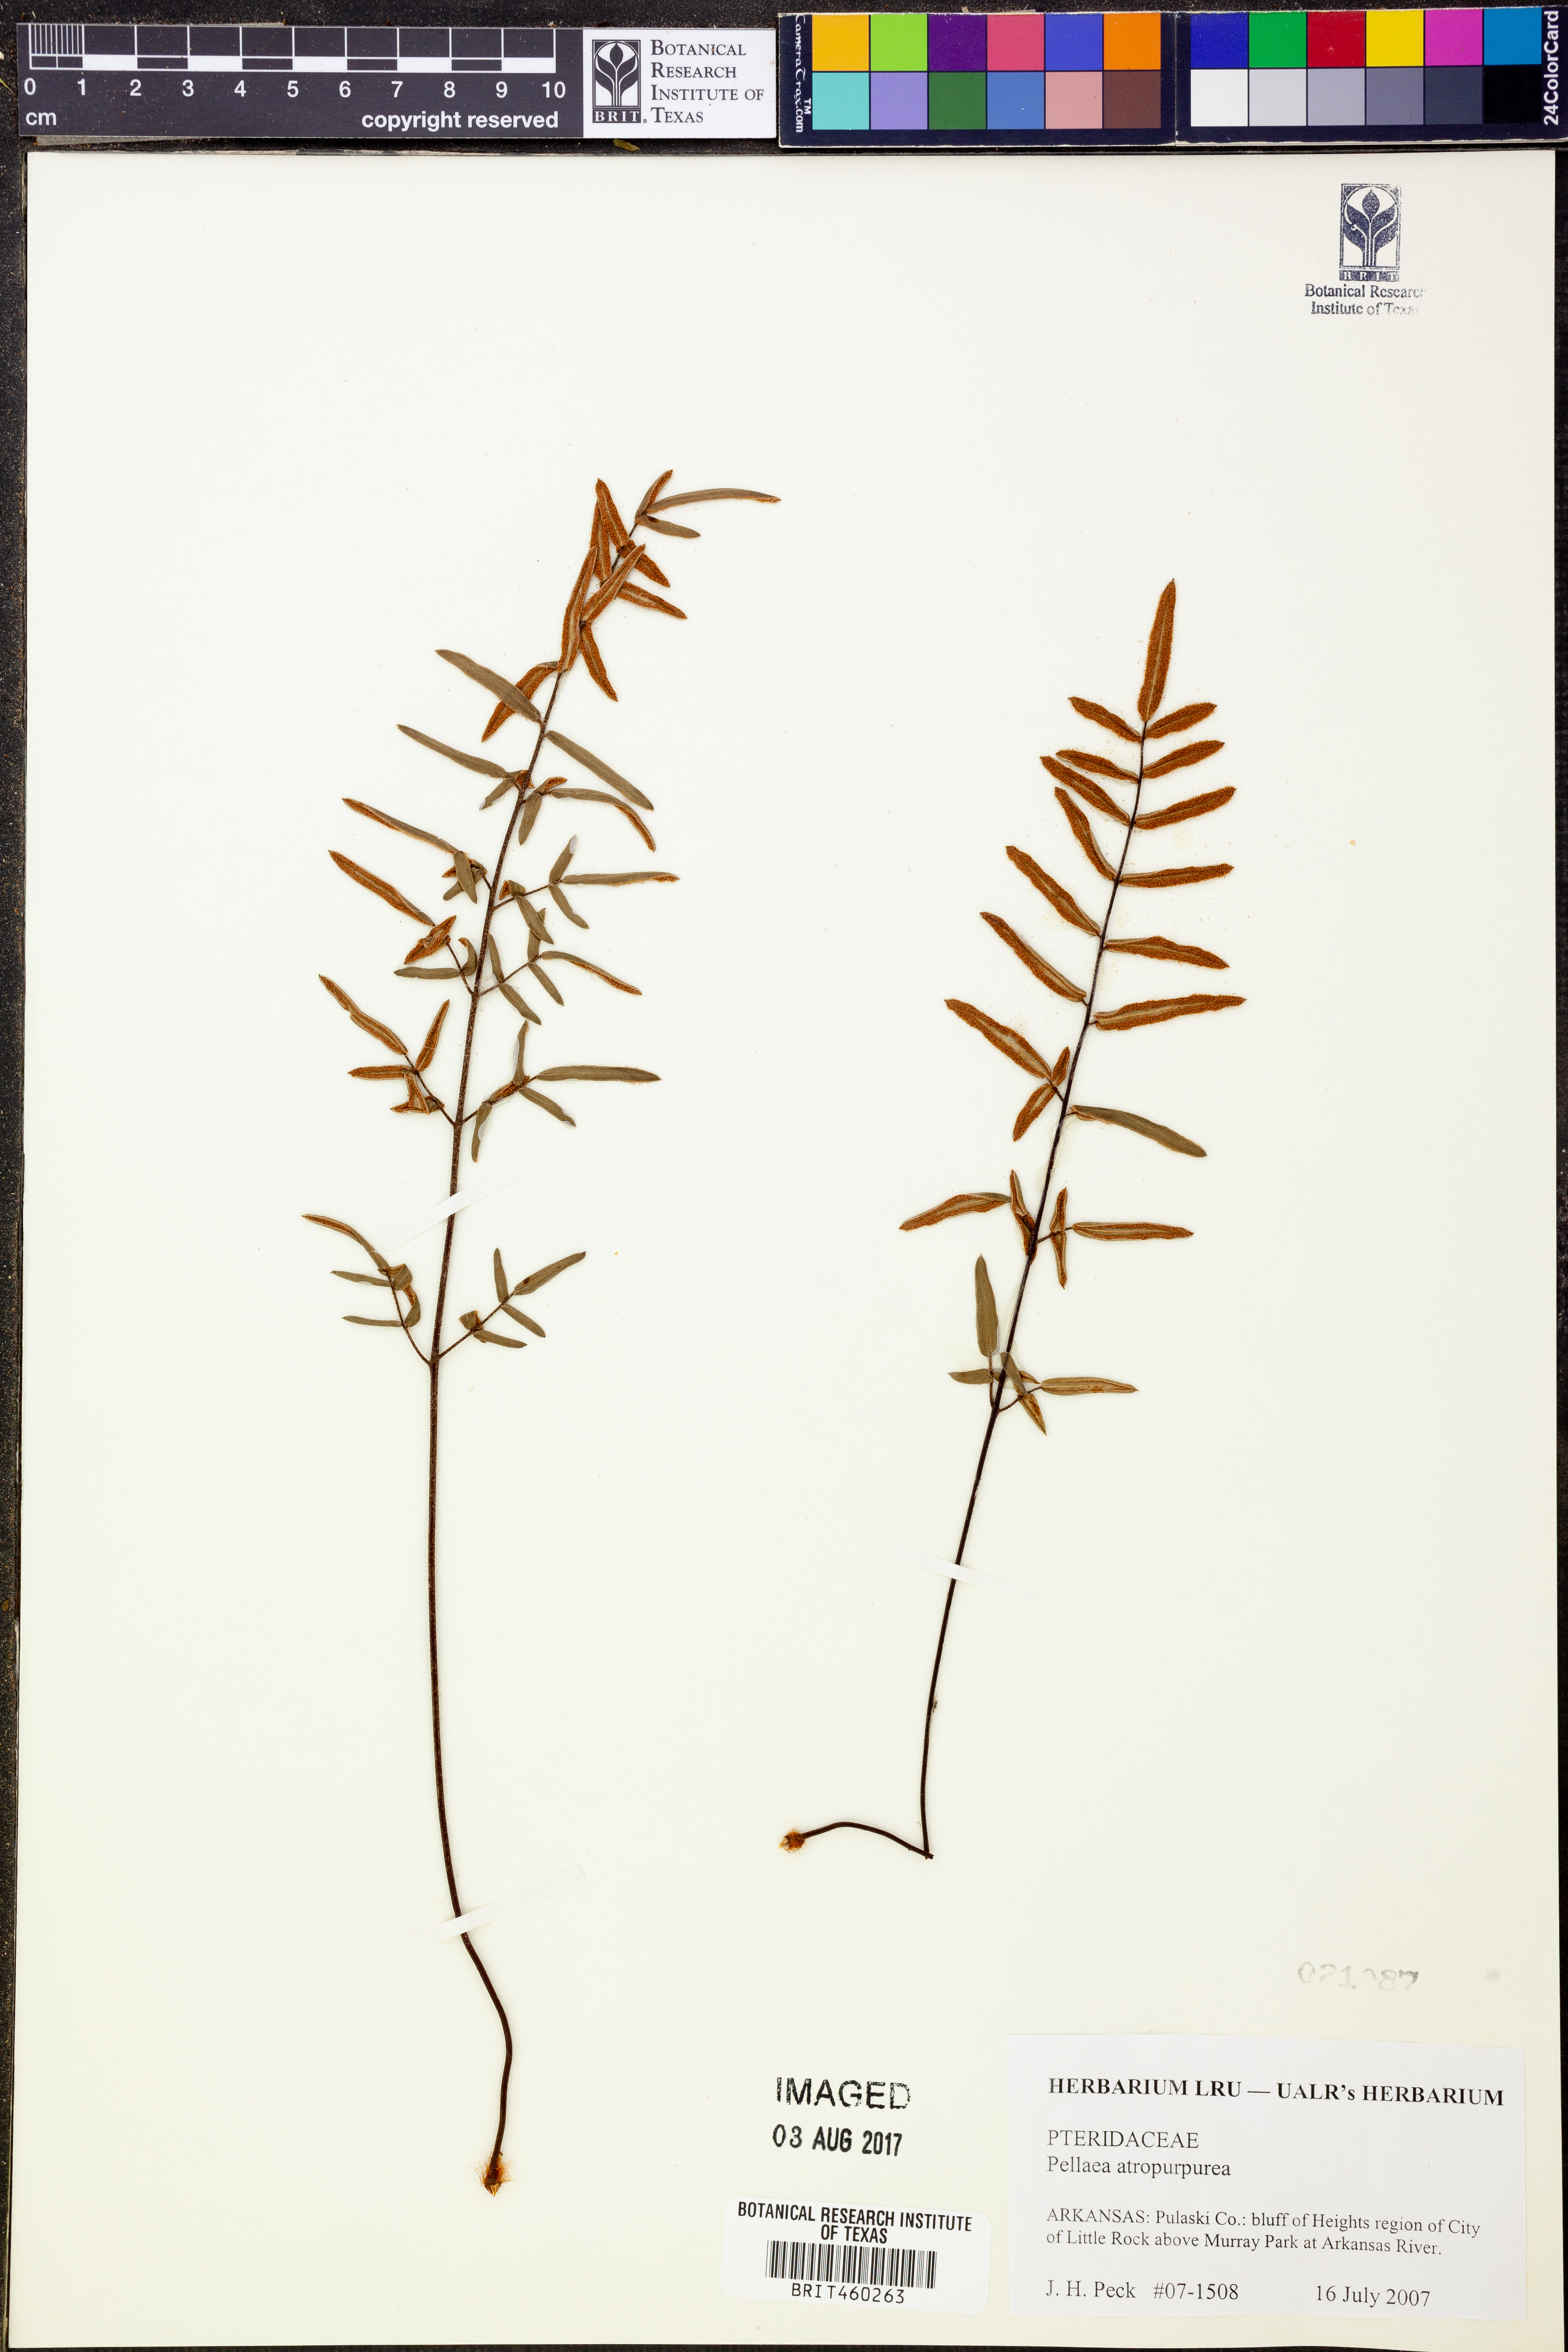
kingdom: Plantae
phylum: Tracheophyta
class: Polypodiopsida
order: Polypodiales
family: Pteridaceae
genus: Pellaea
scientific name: Pellaea atropurpurea
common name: Hairy cliffbrake
